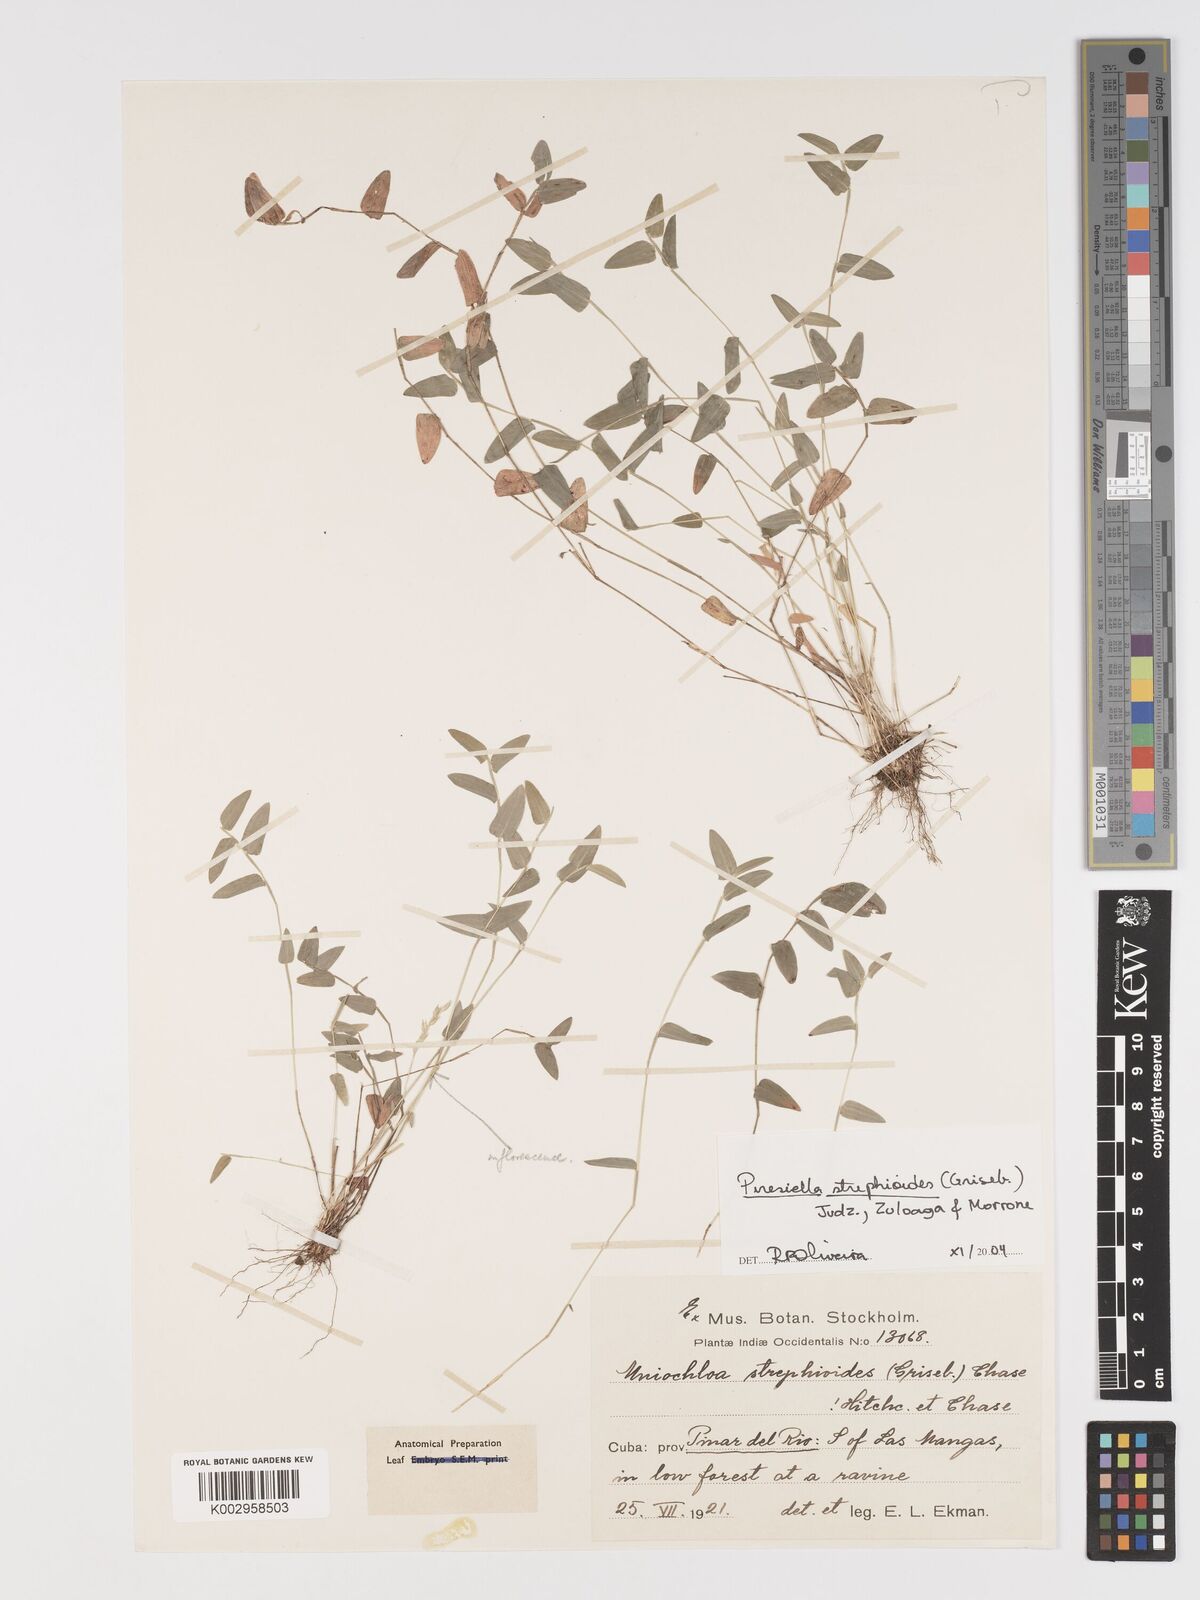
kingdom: Plantae
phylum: Tracheophyta
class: Liliopsida
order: Poales
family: Poaceae
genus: Piresiella
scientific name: Piresiella strephioides
